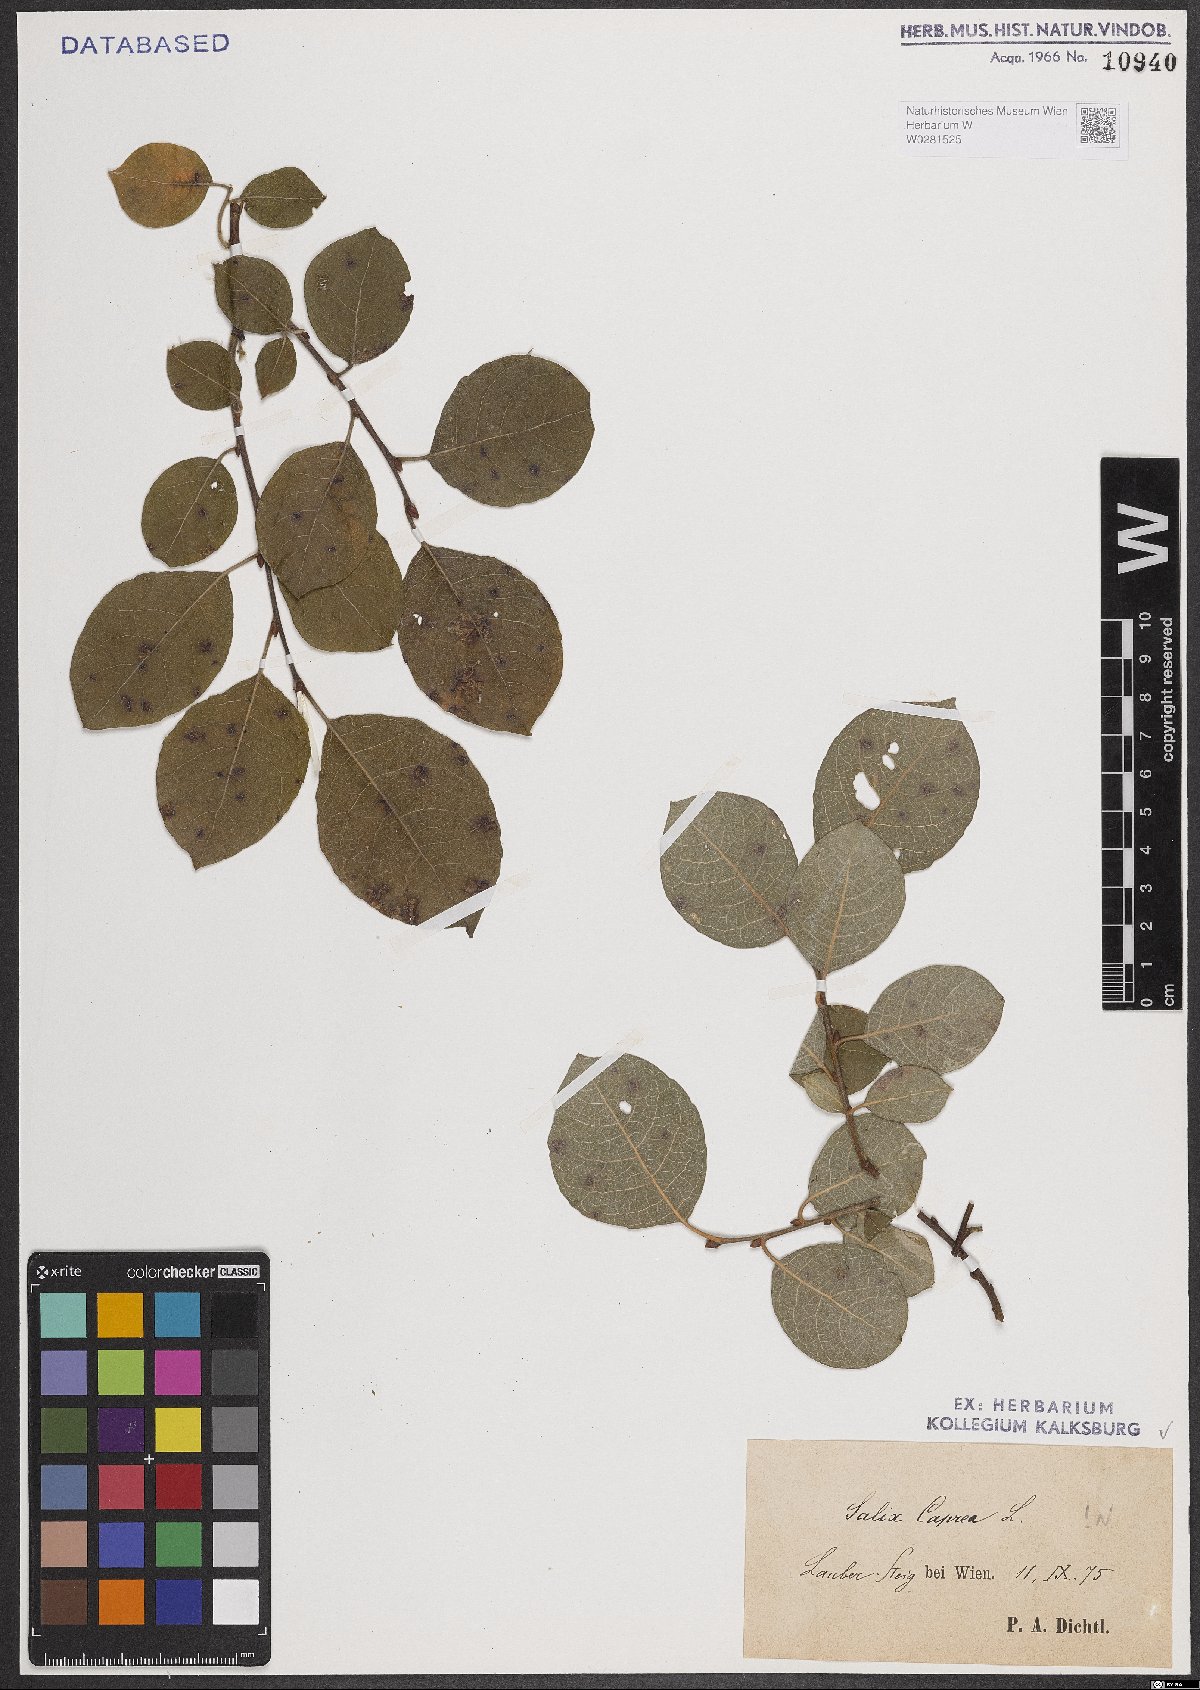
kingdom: Plantae
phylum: Tracheophyta
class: Magnoliopsida
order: Malpighiales
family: Salicaceae
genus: Salix
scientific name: Salix caprea
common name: Goat willow
